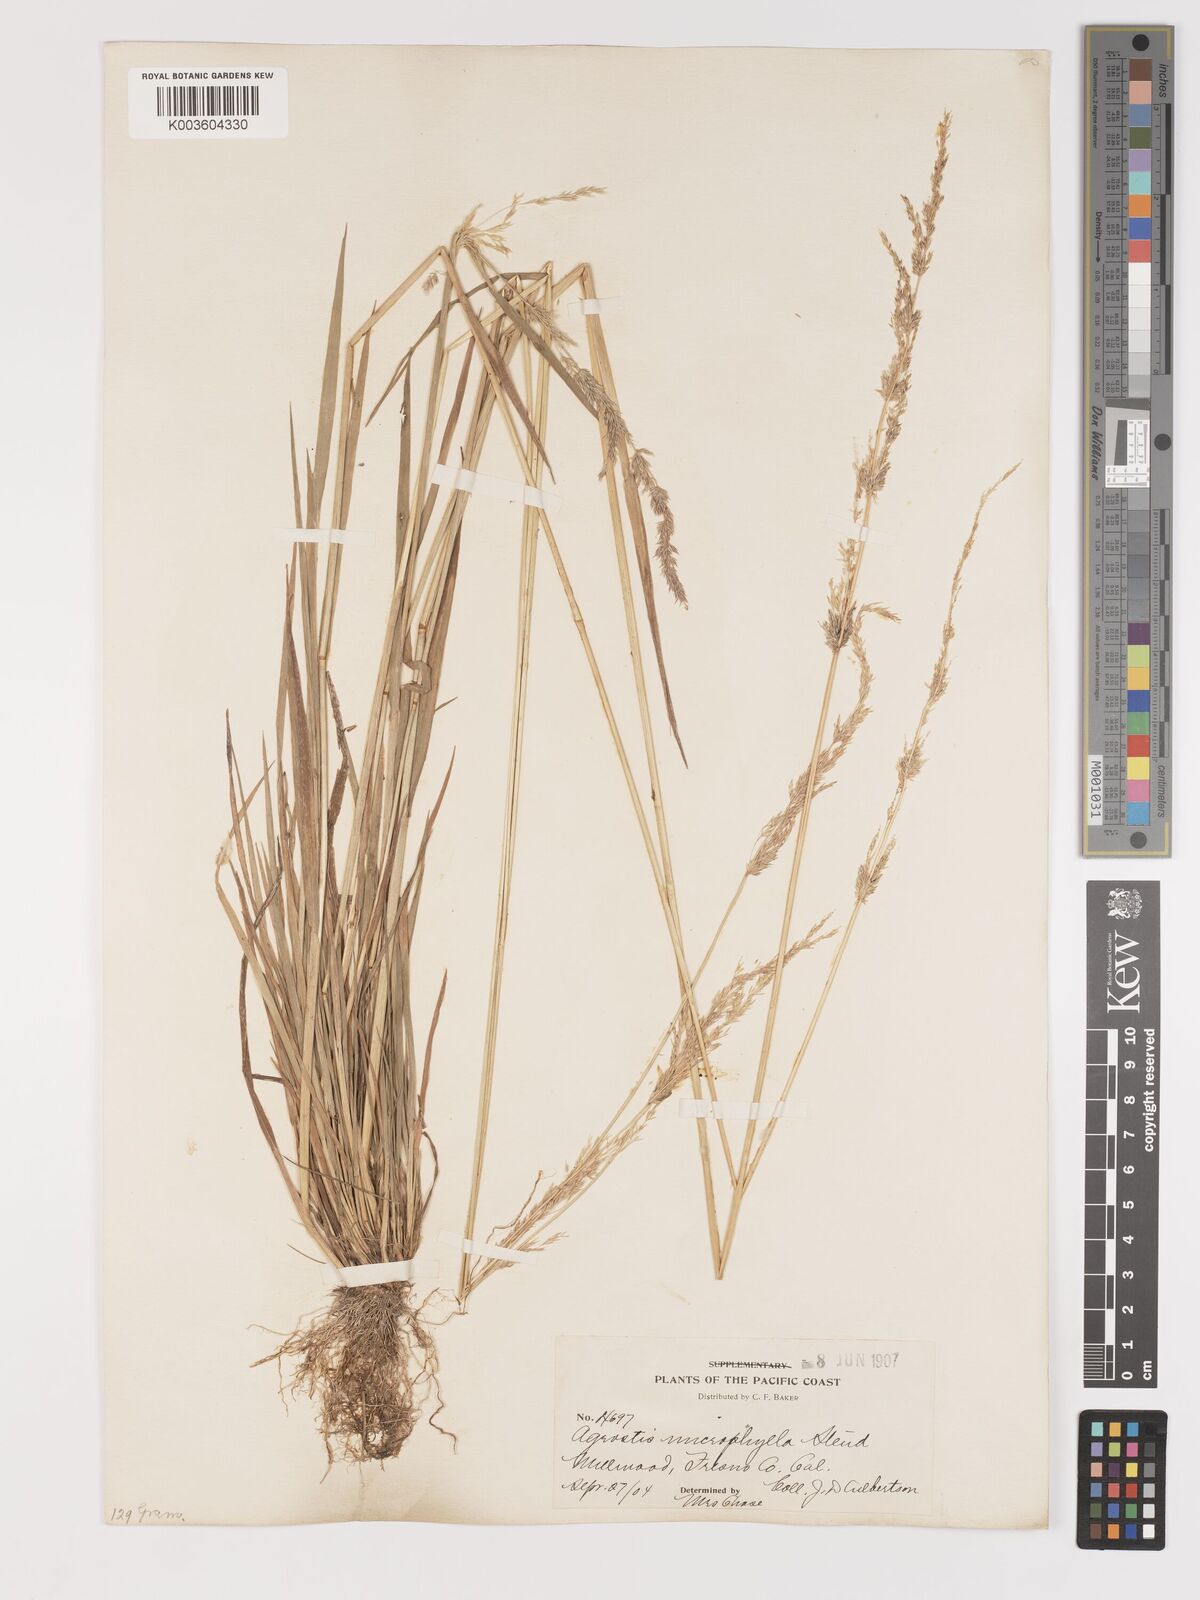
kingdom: Plantae
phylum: Tracheophyta
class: Liliopsida
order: Poales
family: Poaceae
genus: Agrostis
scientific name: Agrostis exarata
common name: Spike bent
